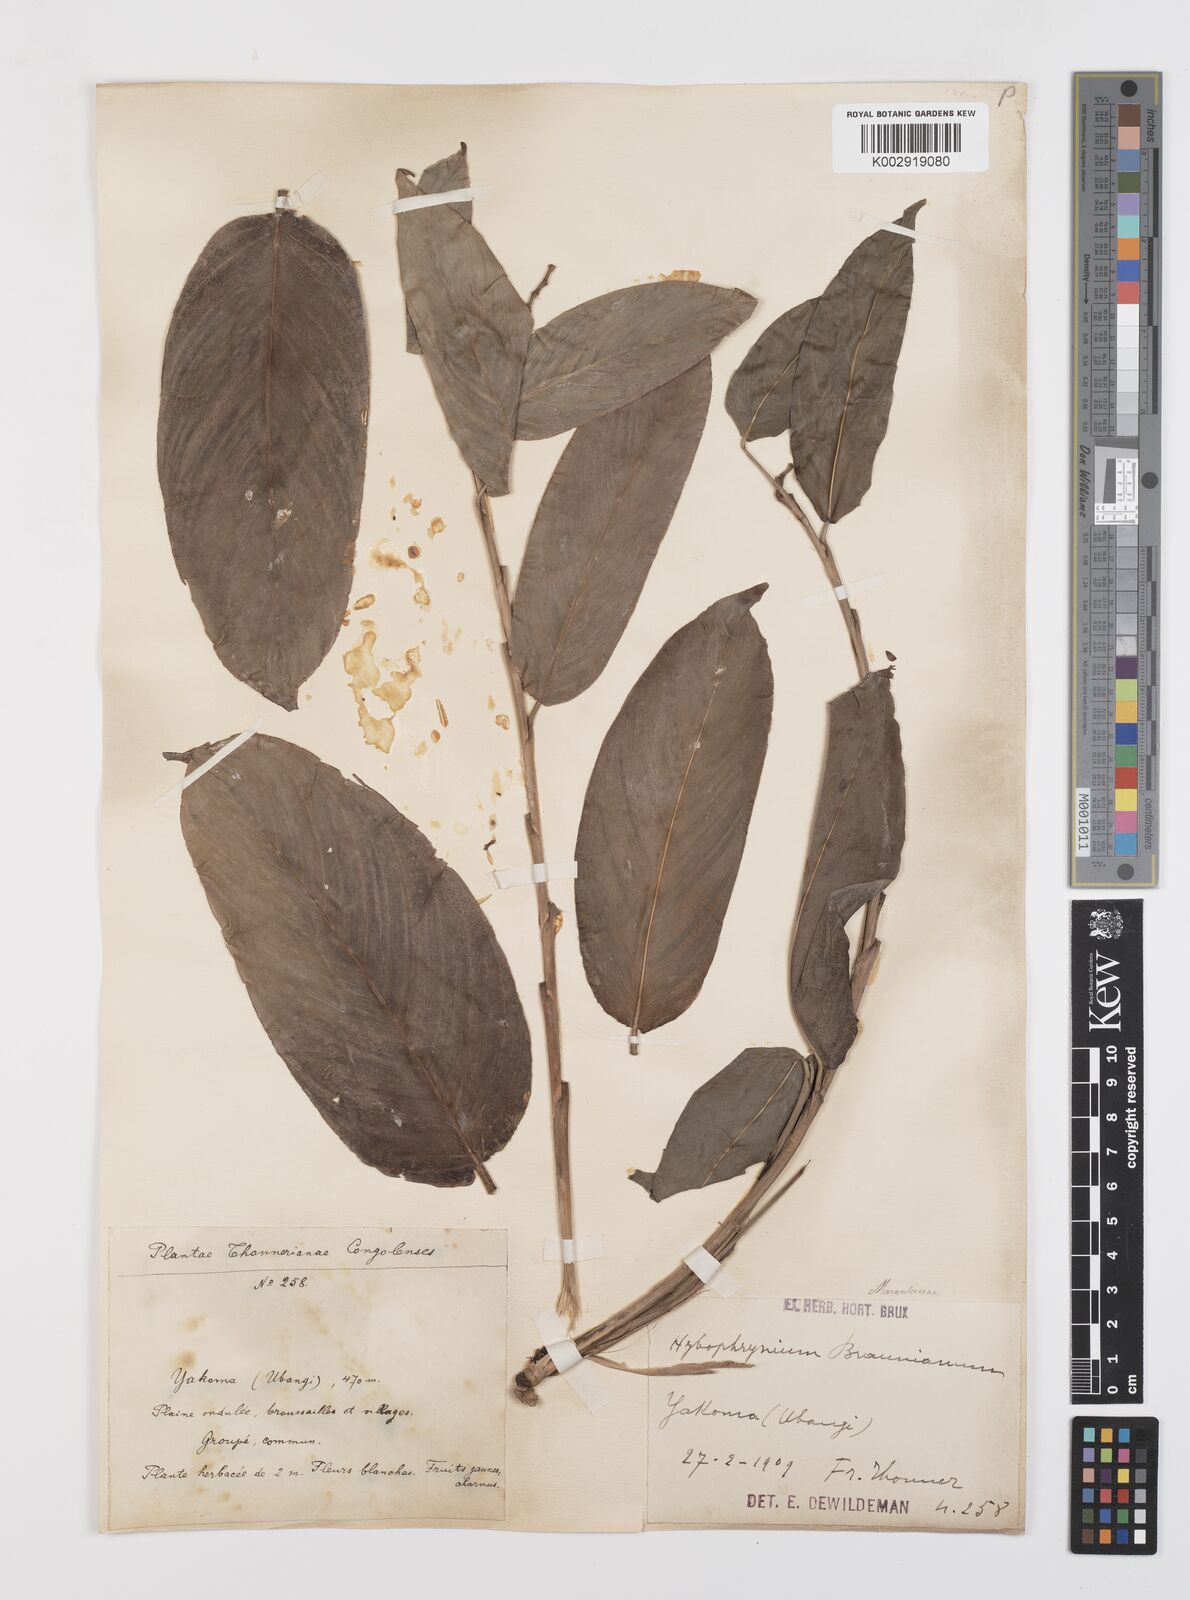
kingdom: Plantae
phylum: Tracheophyta
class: Liliopsida
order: Zingiberales
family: Marantaceae
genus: Trachyphrynium
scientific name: Trachyphrynium braunianum
